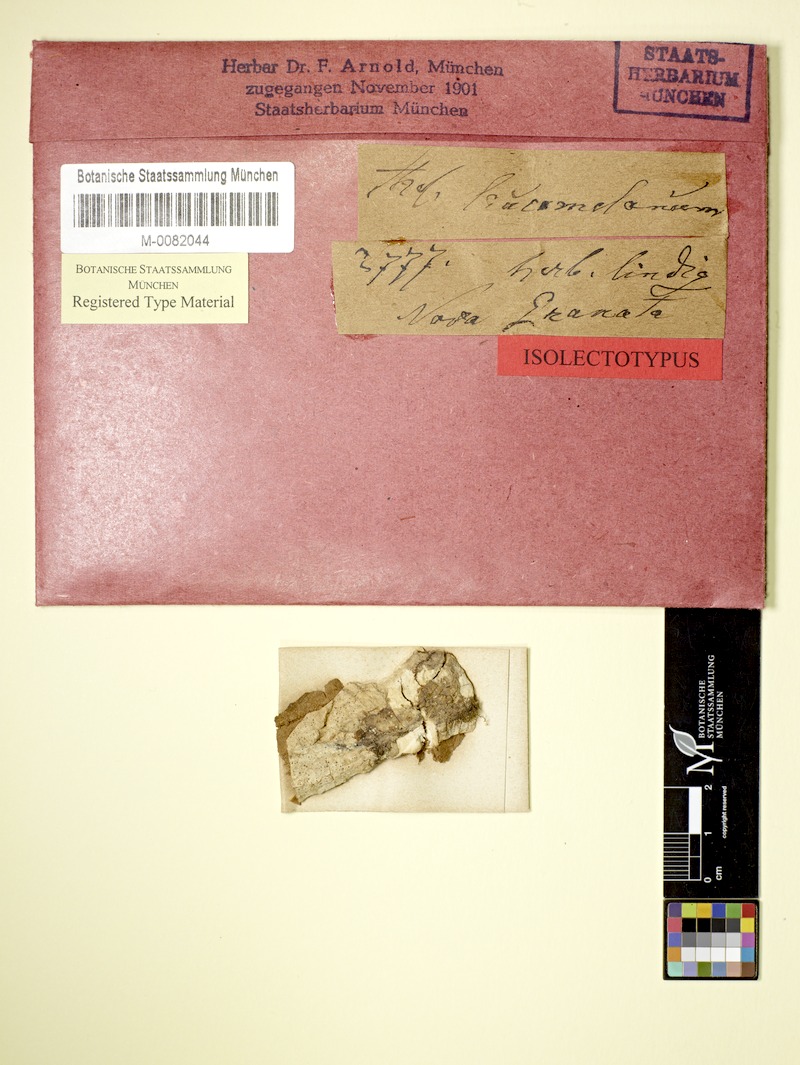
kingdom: Fungi
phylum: Ascomycota
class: Lecanoromycetes
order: Ostropales
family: Graphidaceae
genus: Thelotrema
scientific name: Thelotrema leucomelaenum
